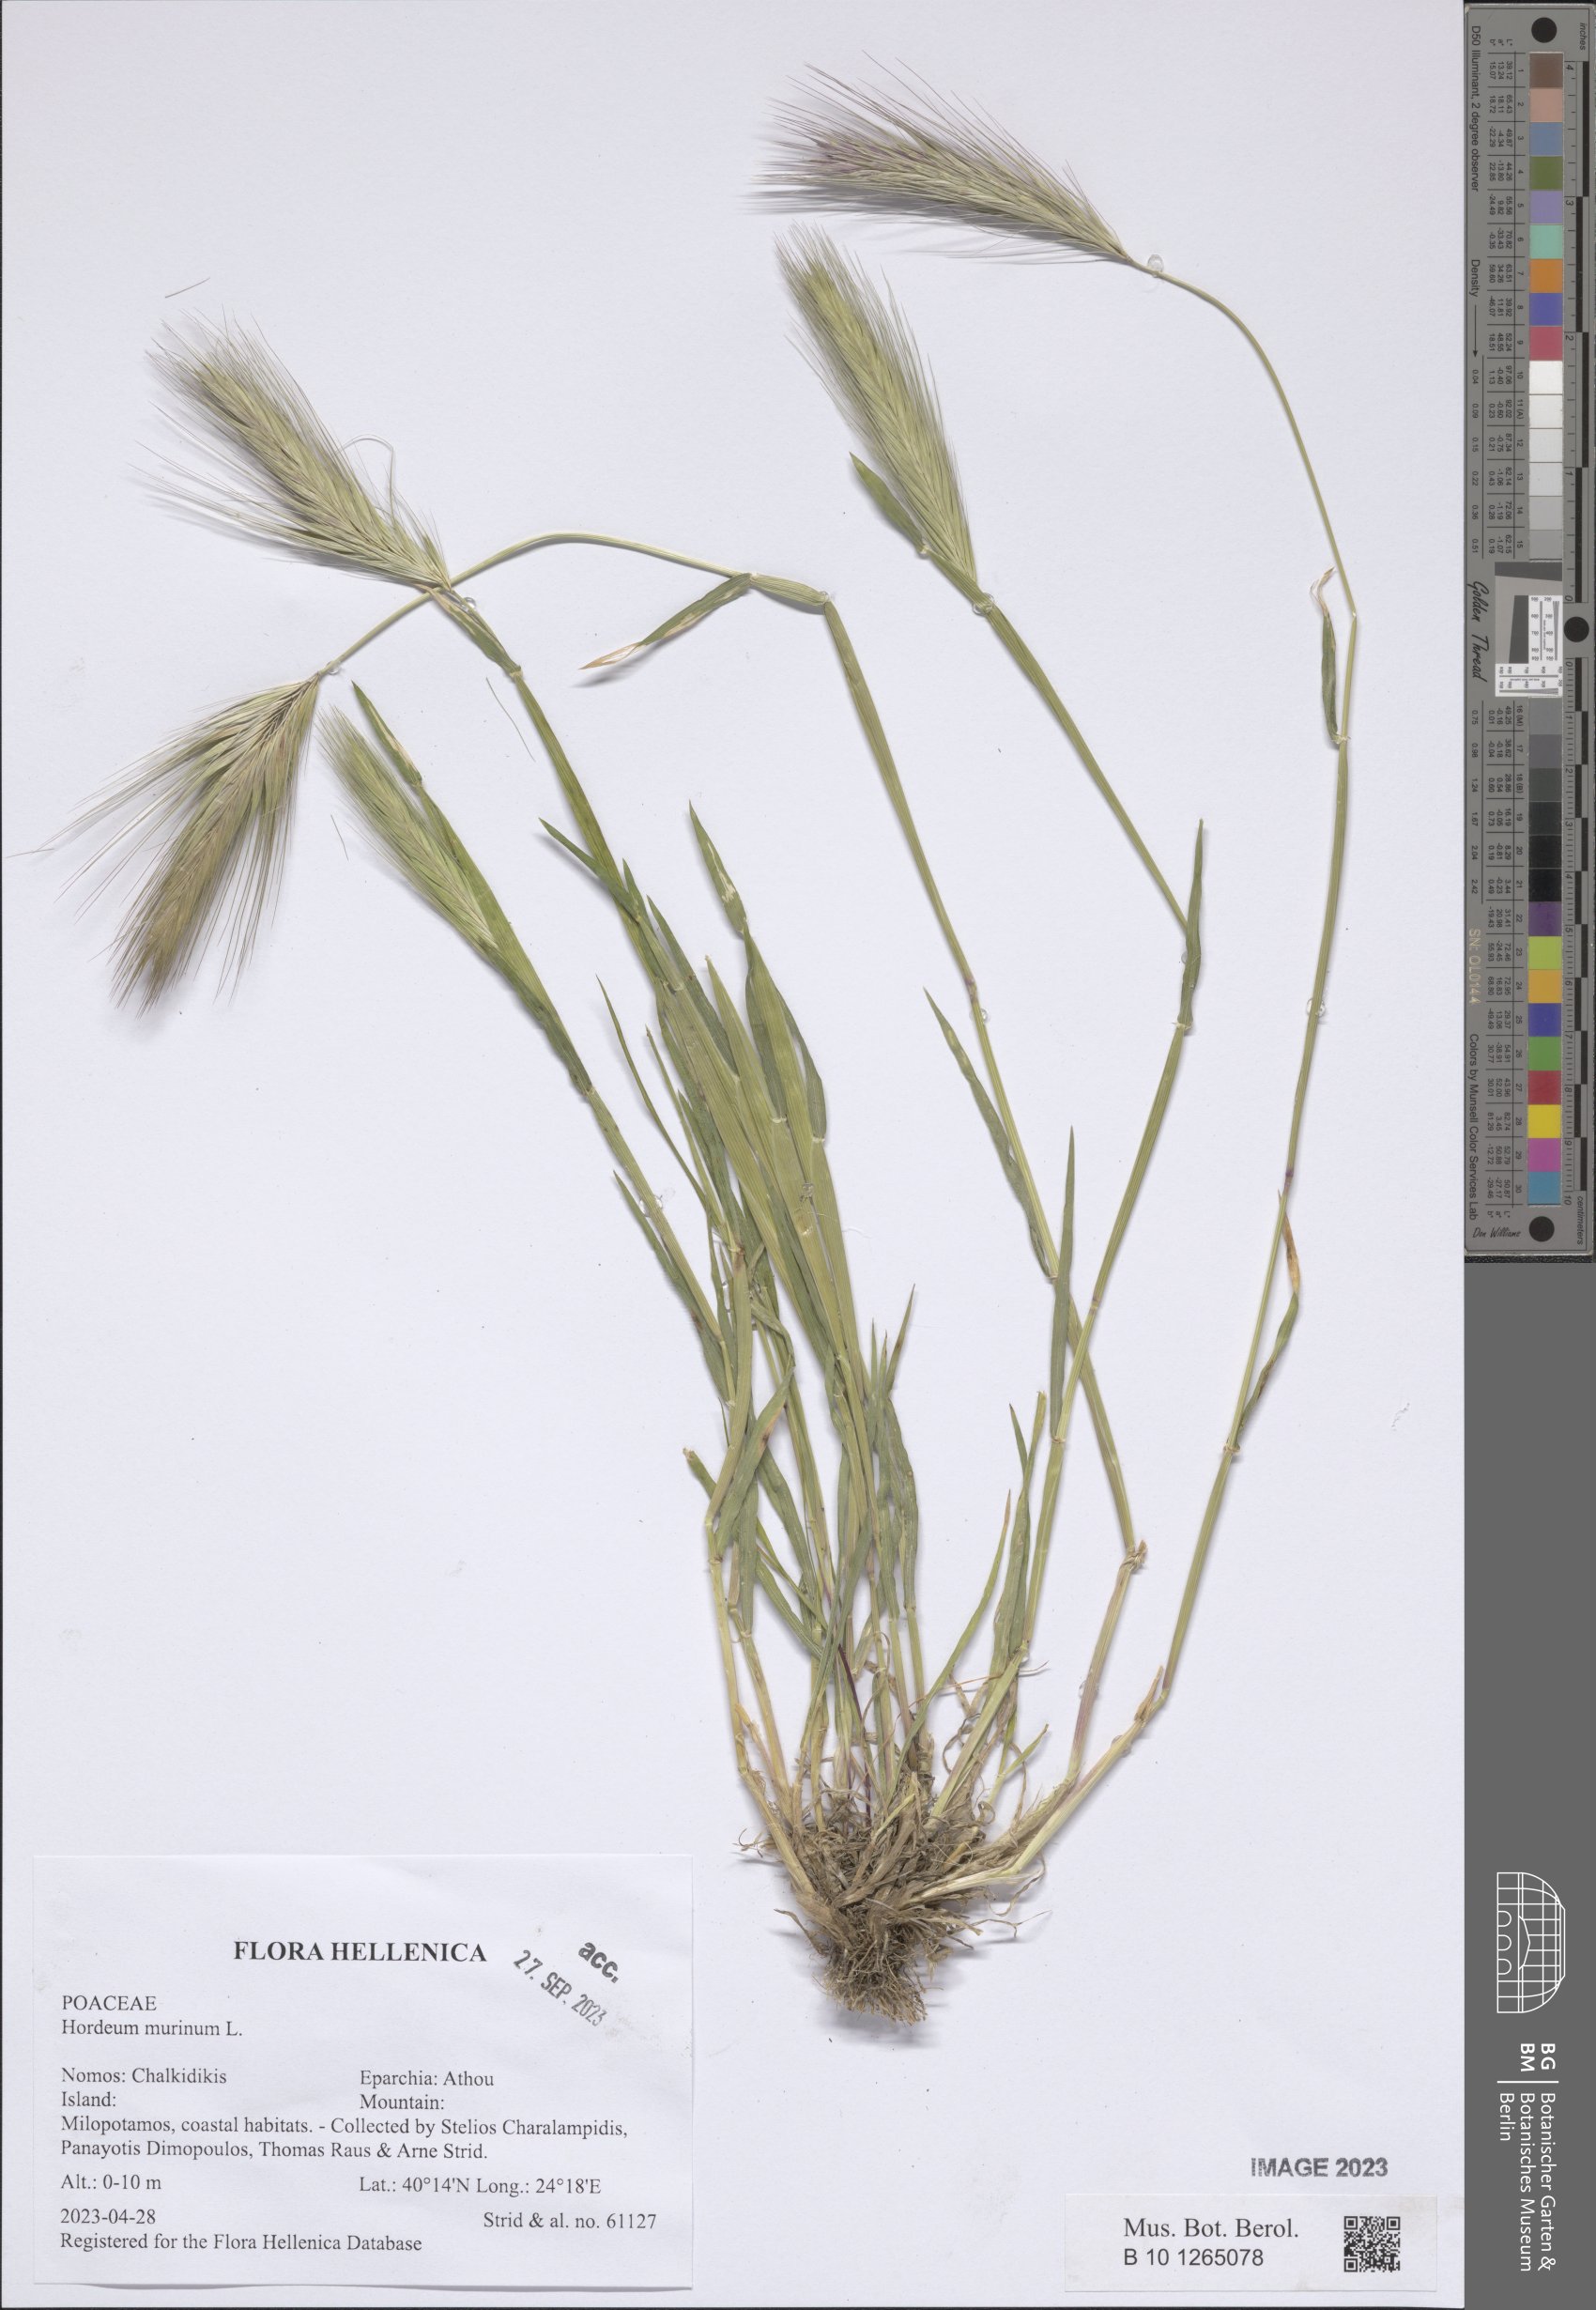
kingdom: Plantae
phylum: Tracheophyta
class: Liliopsida
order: Poales
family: Poaceae
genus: Hordeum
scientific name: Hordeum murinum
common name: Wall barley
